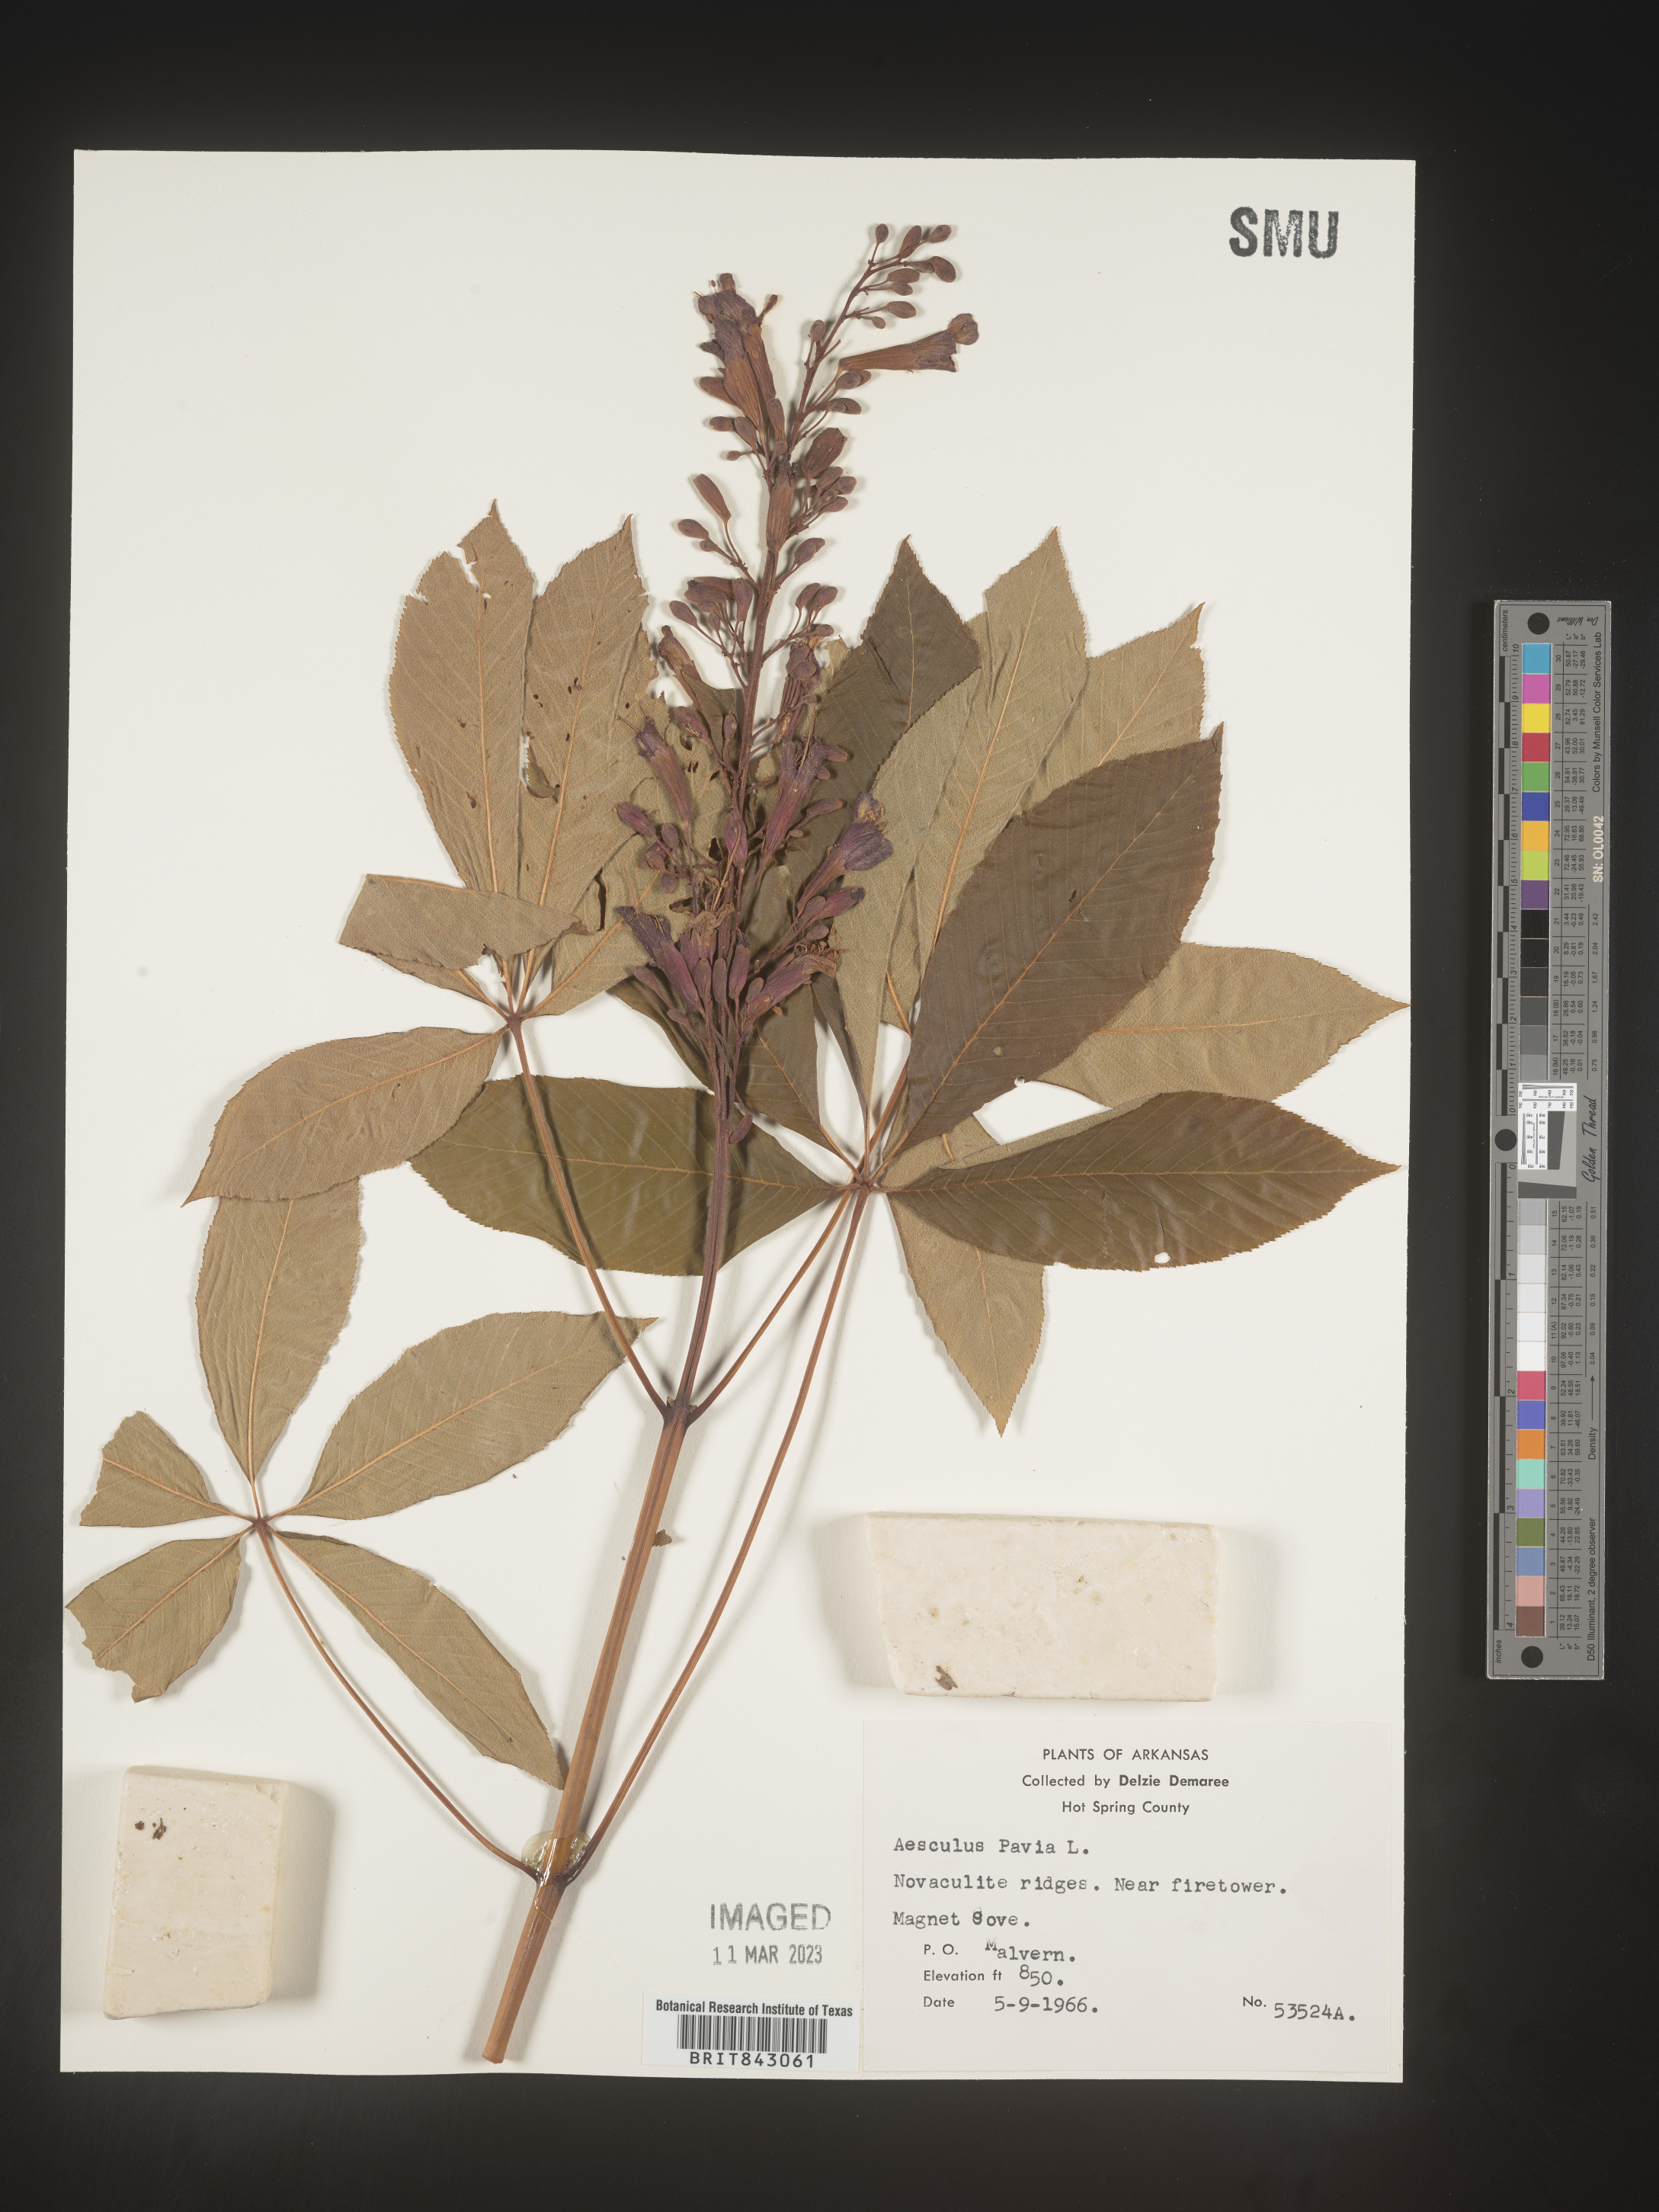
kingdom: Plantae
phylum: Tracheophyta
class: Magnoliopsida
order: Sapindales
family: Sapindaceae
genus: Aesculus
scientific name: Aesculus pavia
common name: Red buckeye
